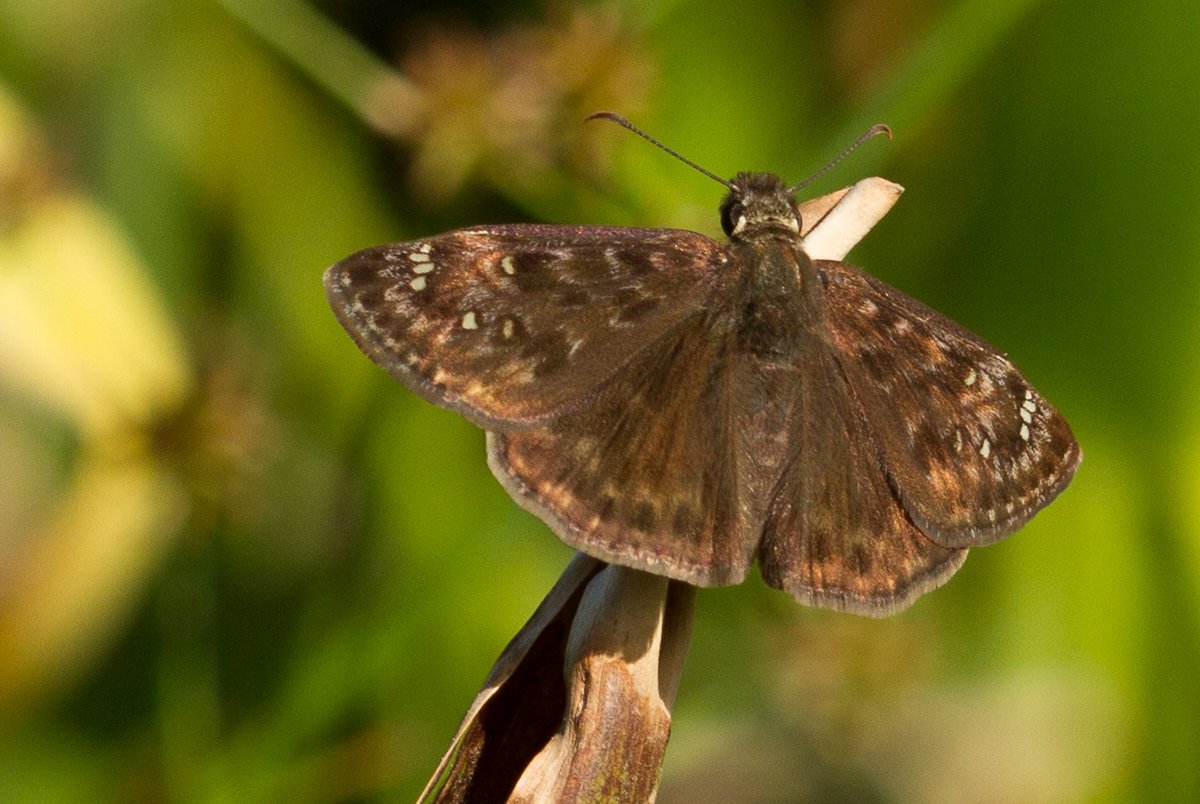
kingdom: Animalia
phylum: Arthropoda
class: Insecta
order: Lepidoptera
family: Hesperiidae
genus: Gesta
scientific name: Gesta
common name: Horace's Duskywing
